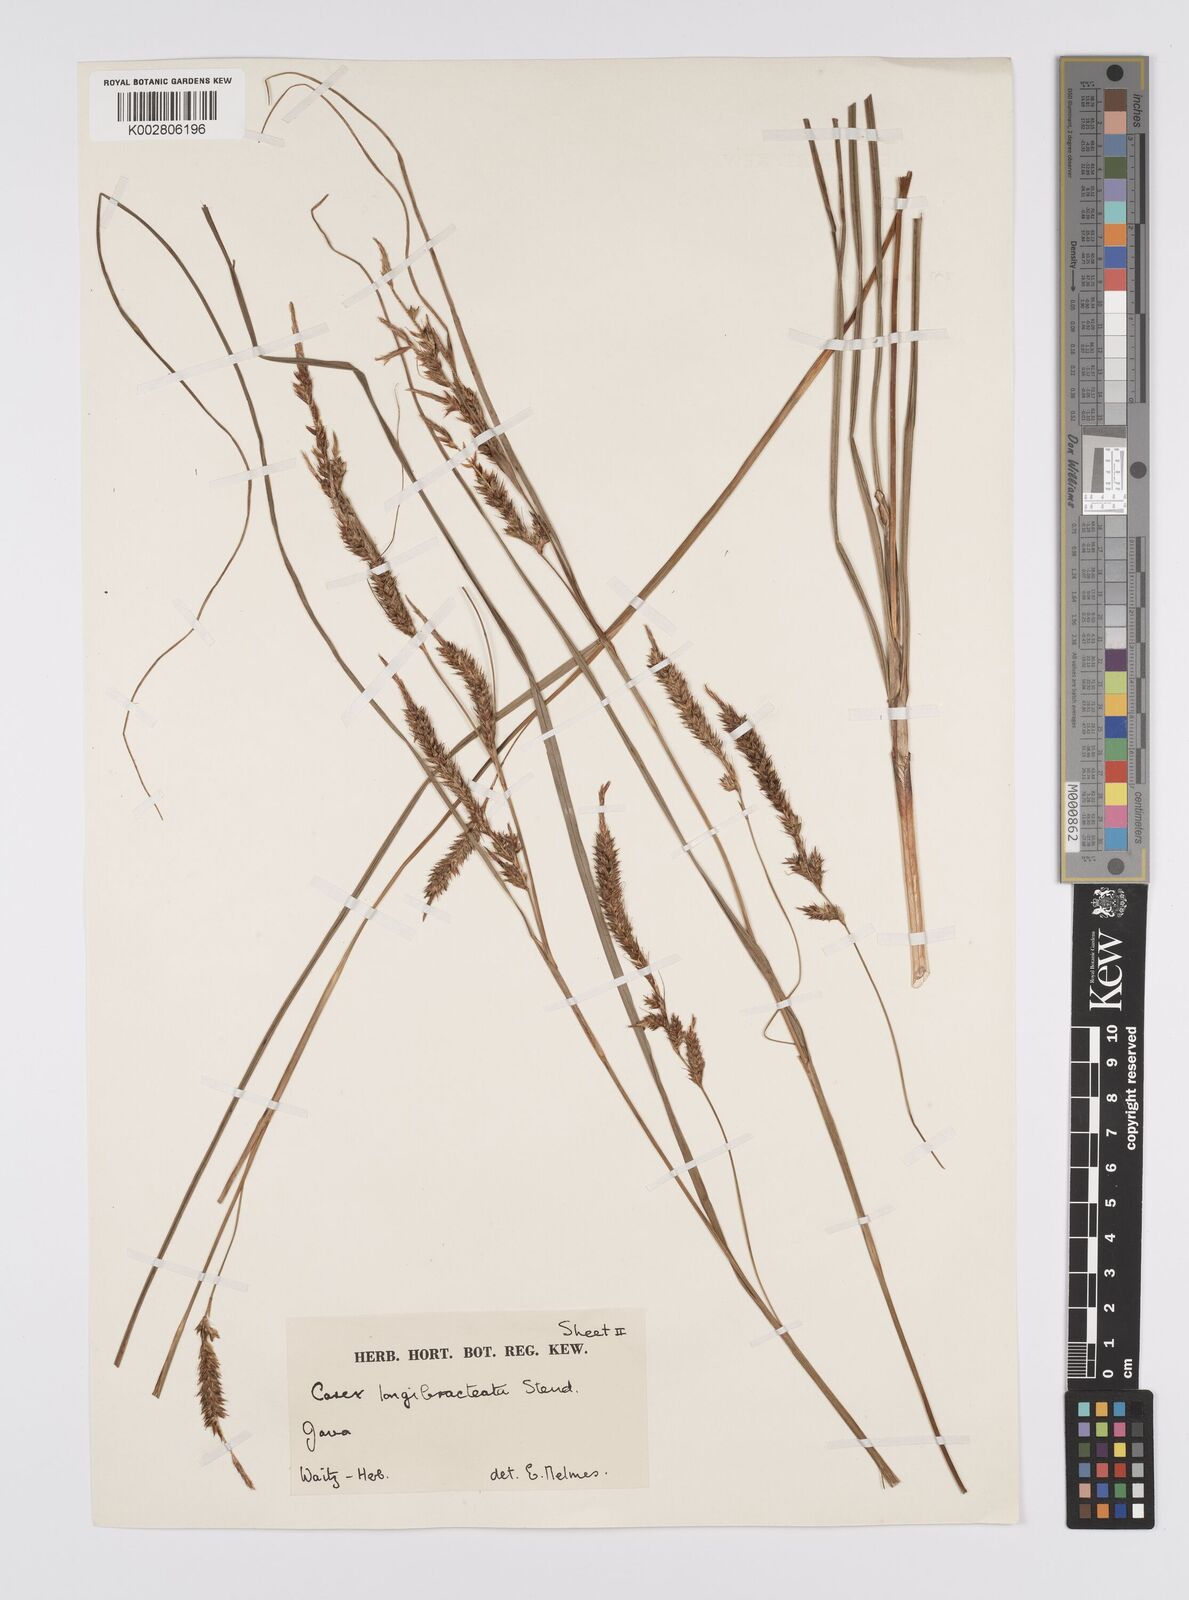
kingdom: Plantae
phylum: Tracheophyta
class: Liliopsida
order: Poales
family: Cyperaceae
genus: Carex
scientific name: Carex myosurus
